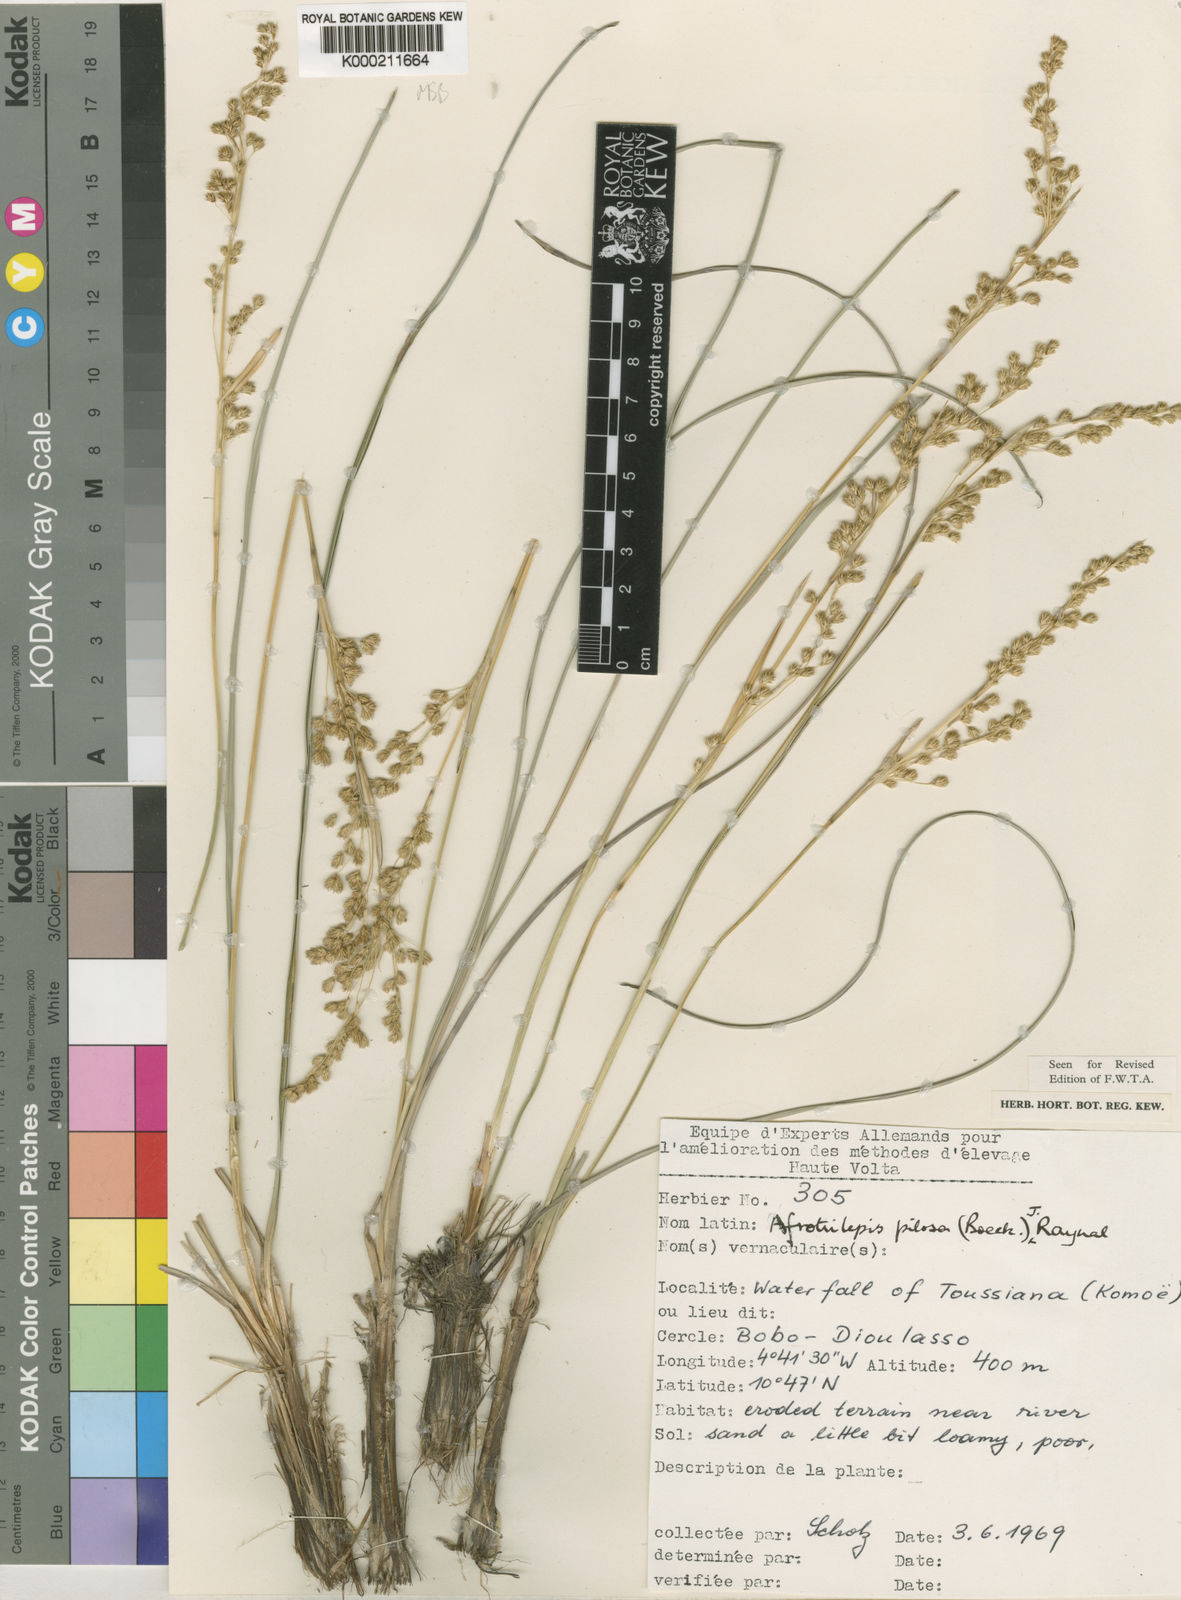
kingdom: Plantae
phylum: Tracheophyta
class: Liliopsida
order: Poales
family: Cyperaceae
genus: Afrotrilepis
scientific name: Afrotrilepis pilosa
